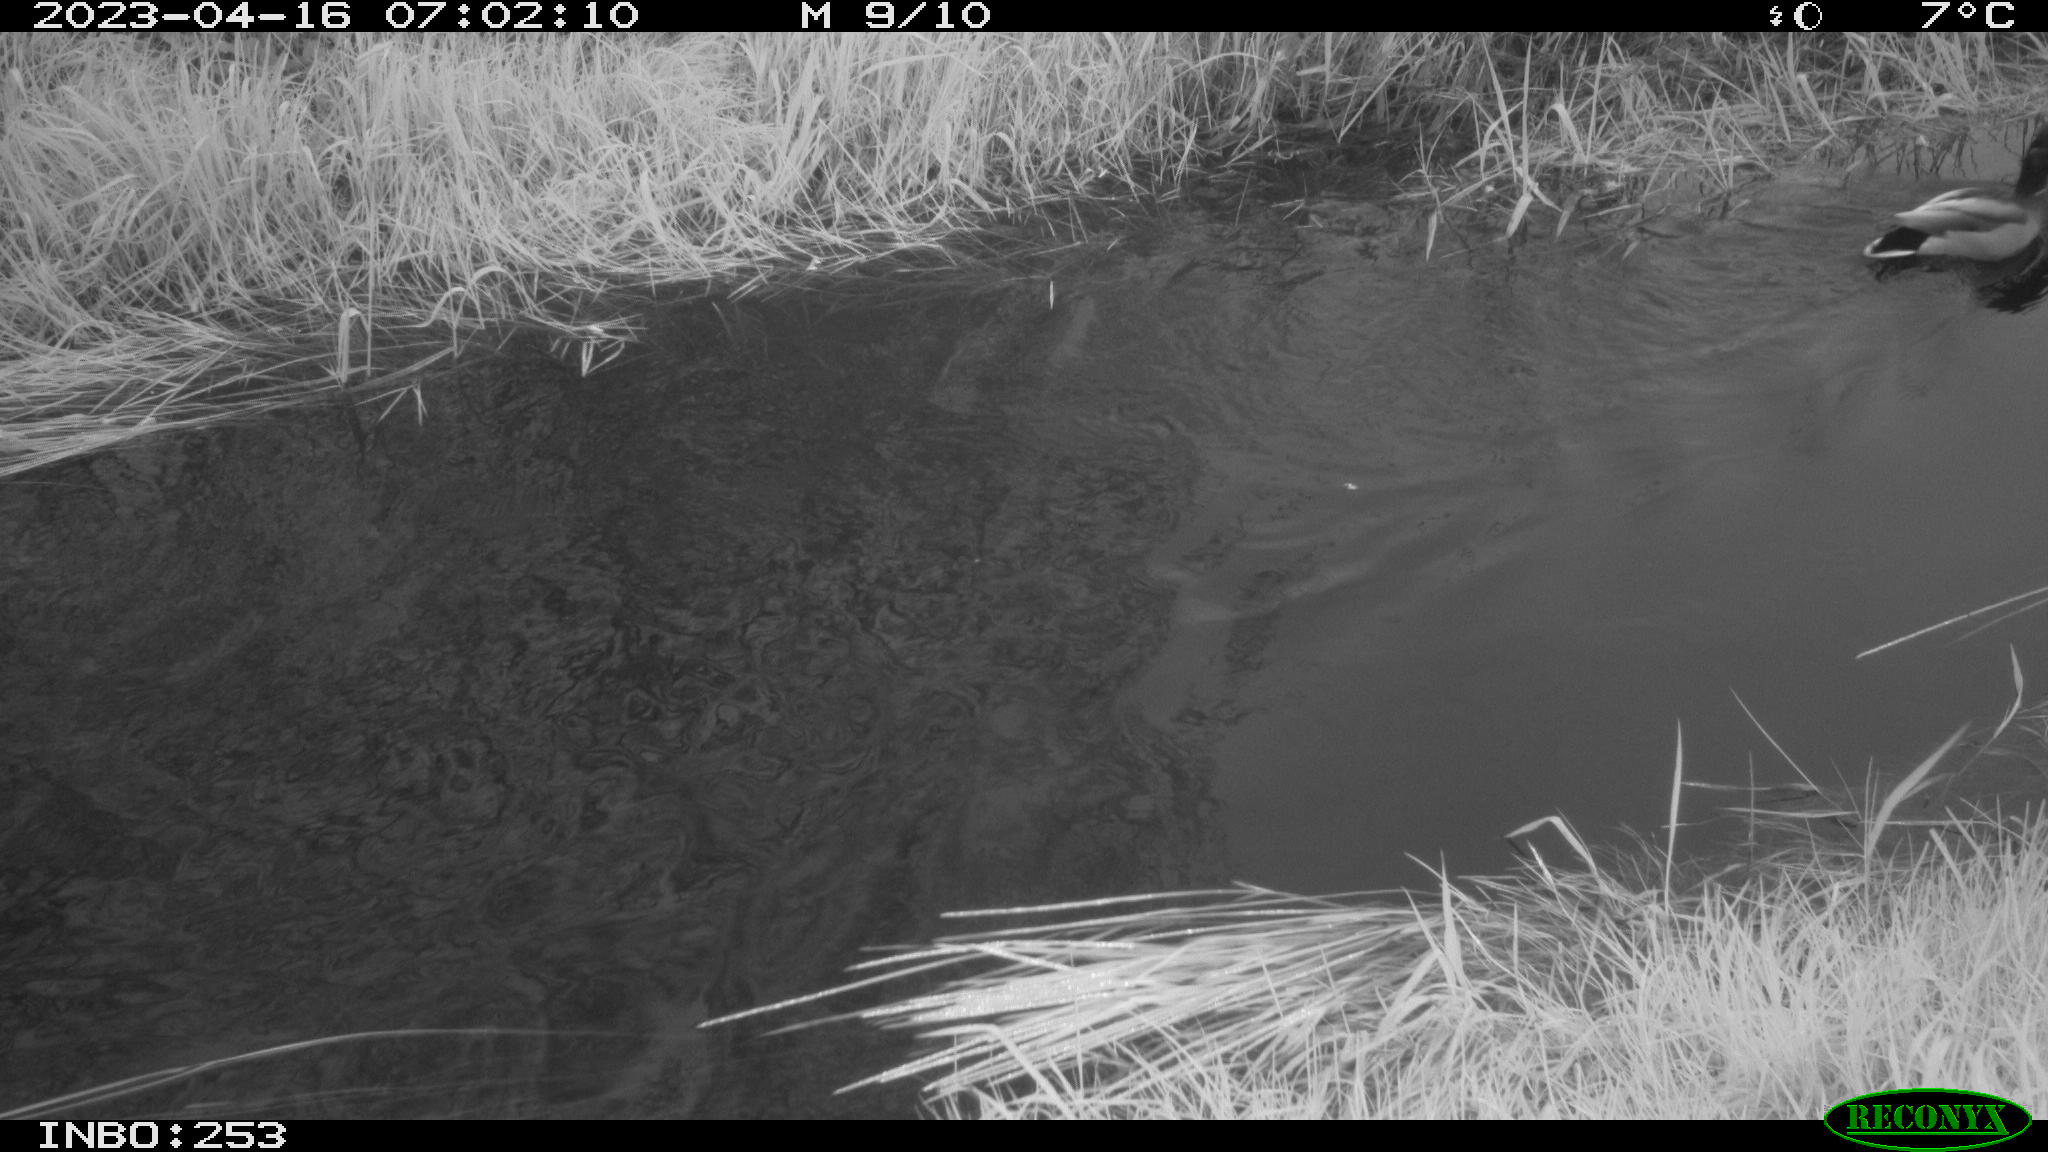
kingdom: Animalia
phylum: Chordata
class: Aves
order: Anseriformes
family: Anatidae
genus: Anas
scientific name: Anas
